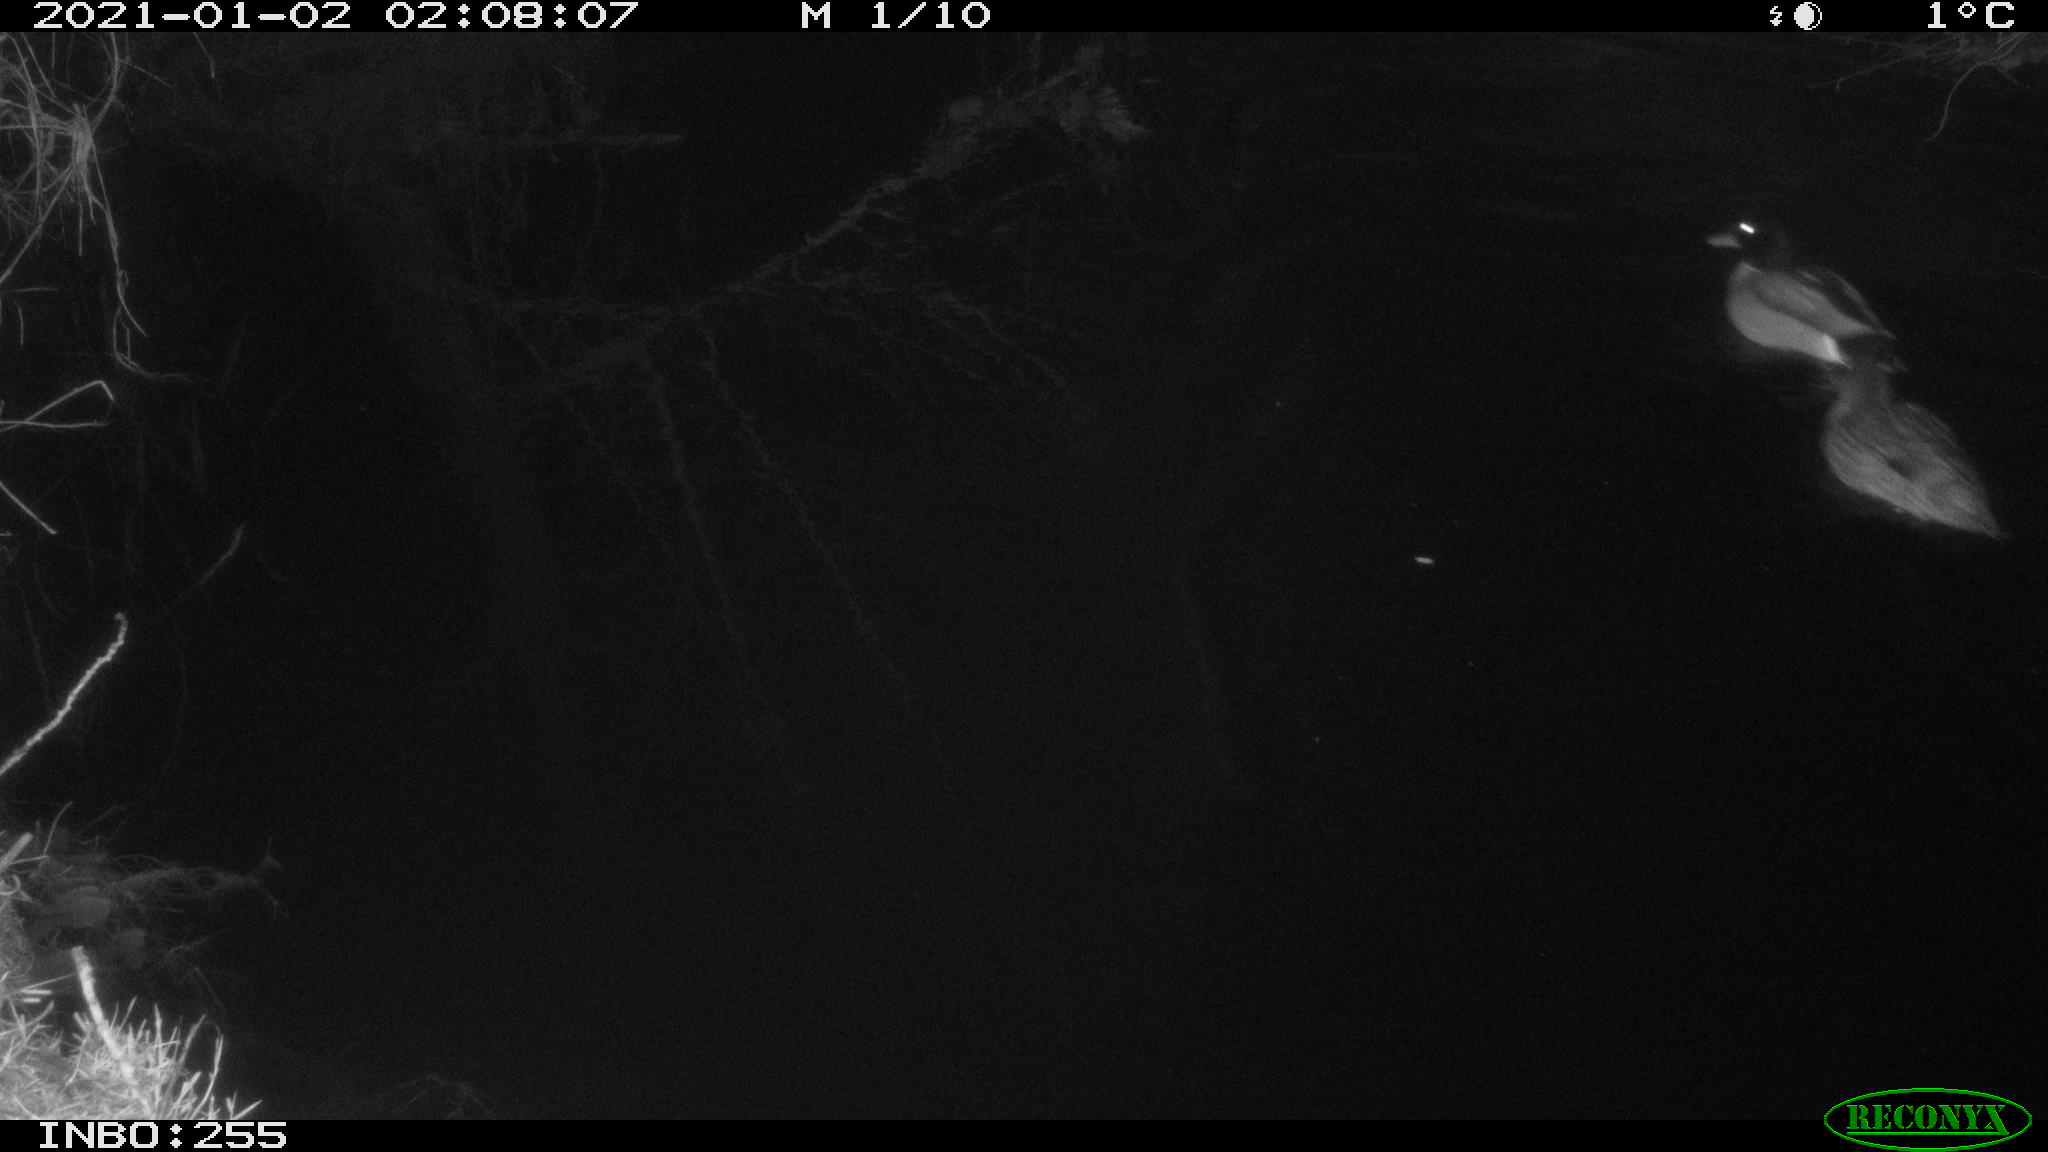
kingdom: Animalia
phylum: Chordata
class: Aves
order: Anseriformes
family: Anatidae
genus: Anas
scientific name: Anas platyrhynchos
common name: Mallard
